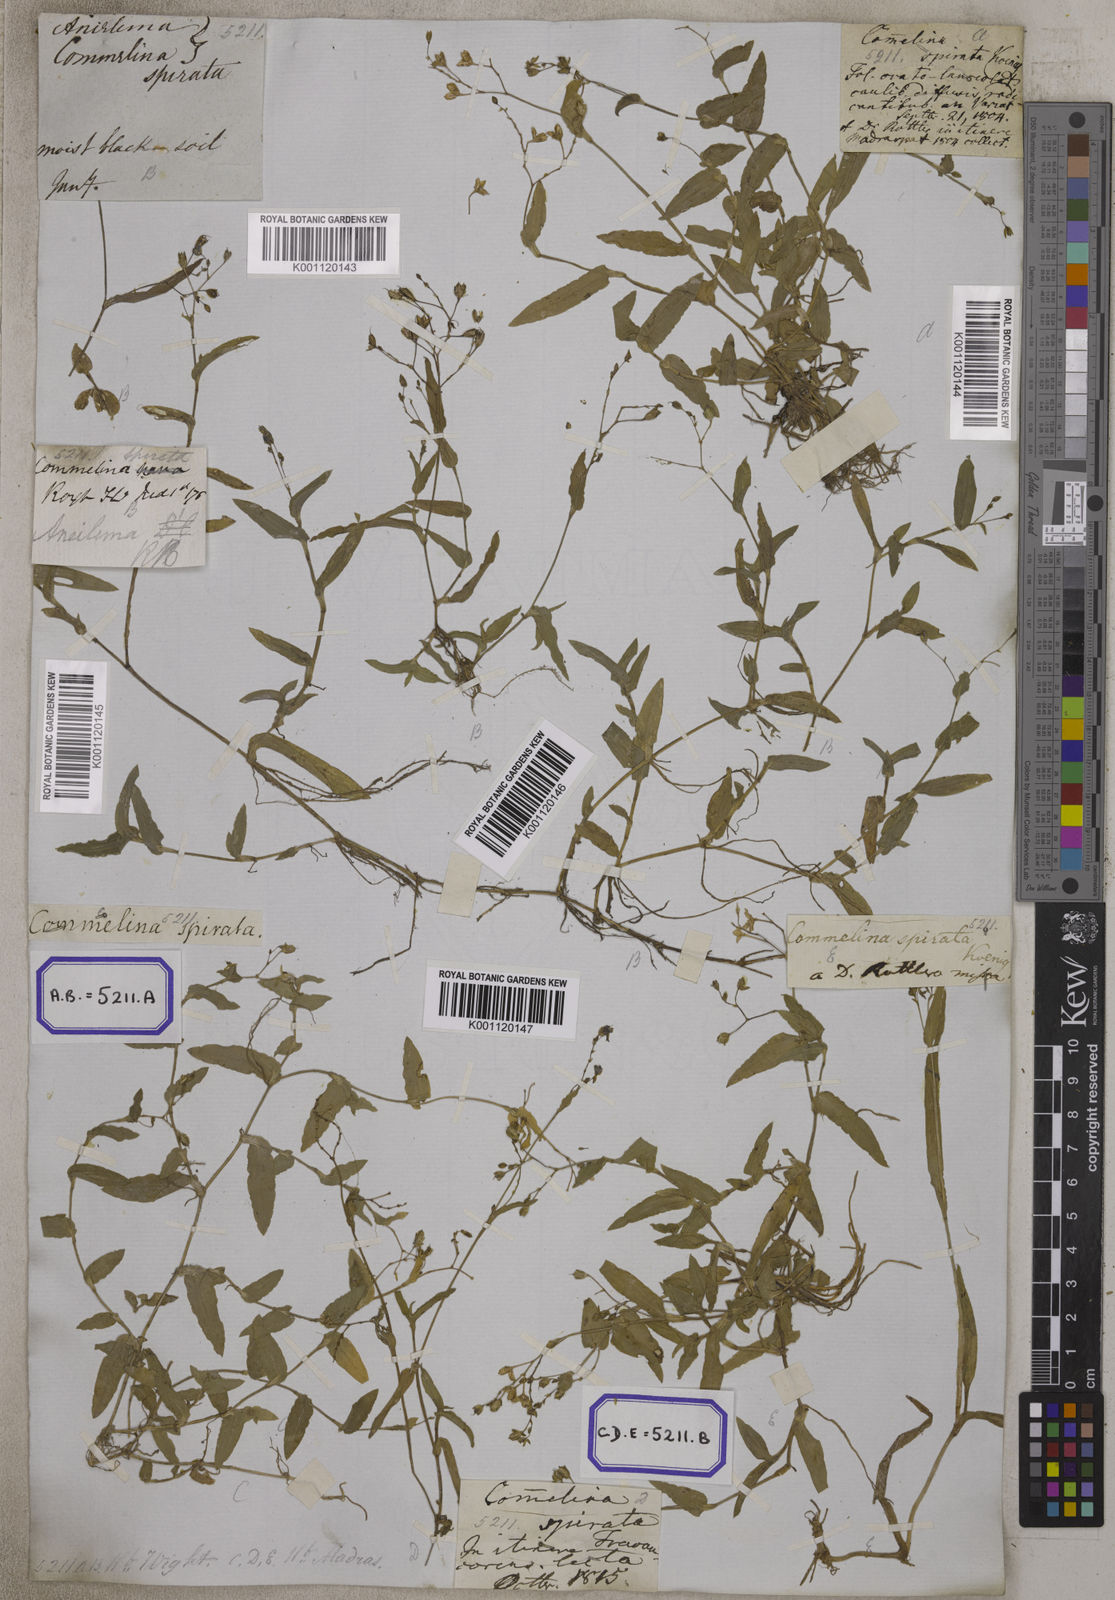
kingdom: Plantae
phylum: Tracheophyta
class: Liliopsida
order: Commelinales
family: Commelinaceae
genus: Aneilema
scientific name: Aneilema
